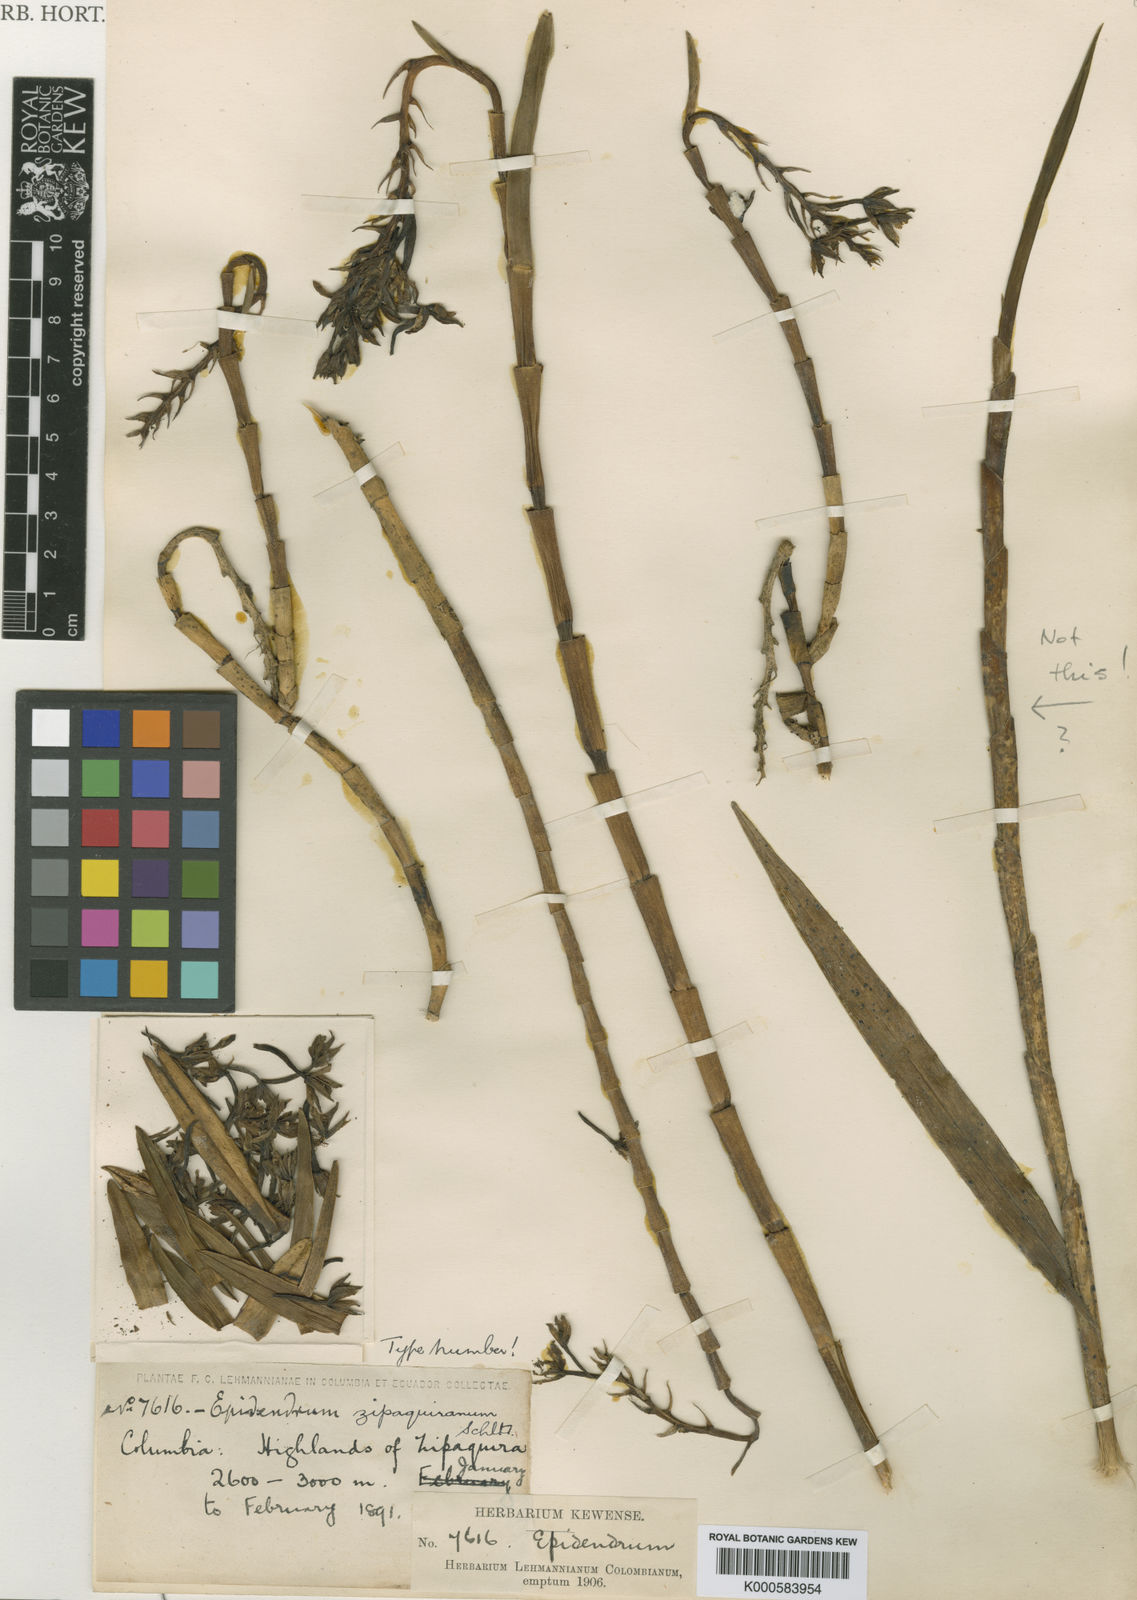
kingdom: Plantae
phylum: Tracheophyta
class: Liliopsida
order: Asparagales
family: Orchidaceae
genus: Epidendrum
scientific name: Epidendrum zipaquiranum
